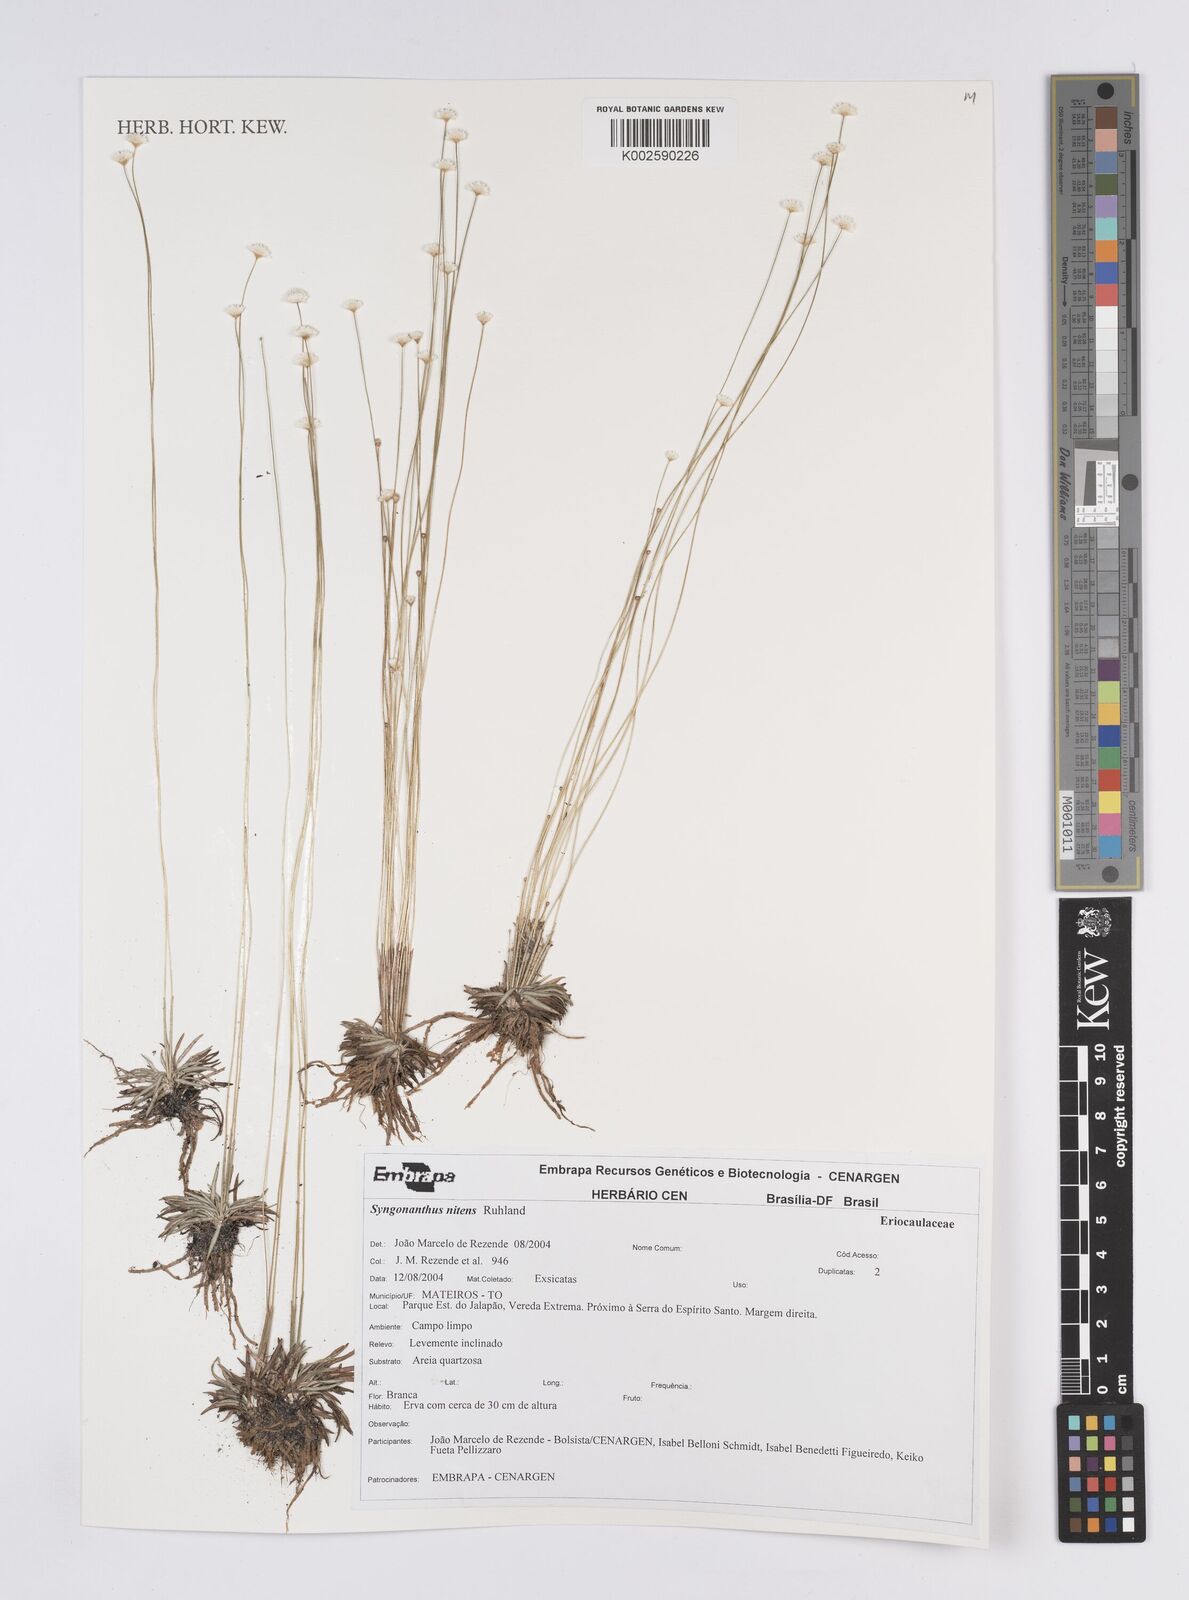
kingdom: Plantae
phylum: Tracheophyta
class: Liliopsida
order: Poales
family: Eriocaulaceae
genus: Syngonanthus
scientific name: Syngonanthus nitens
